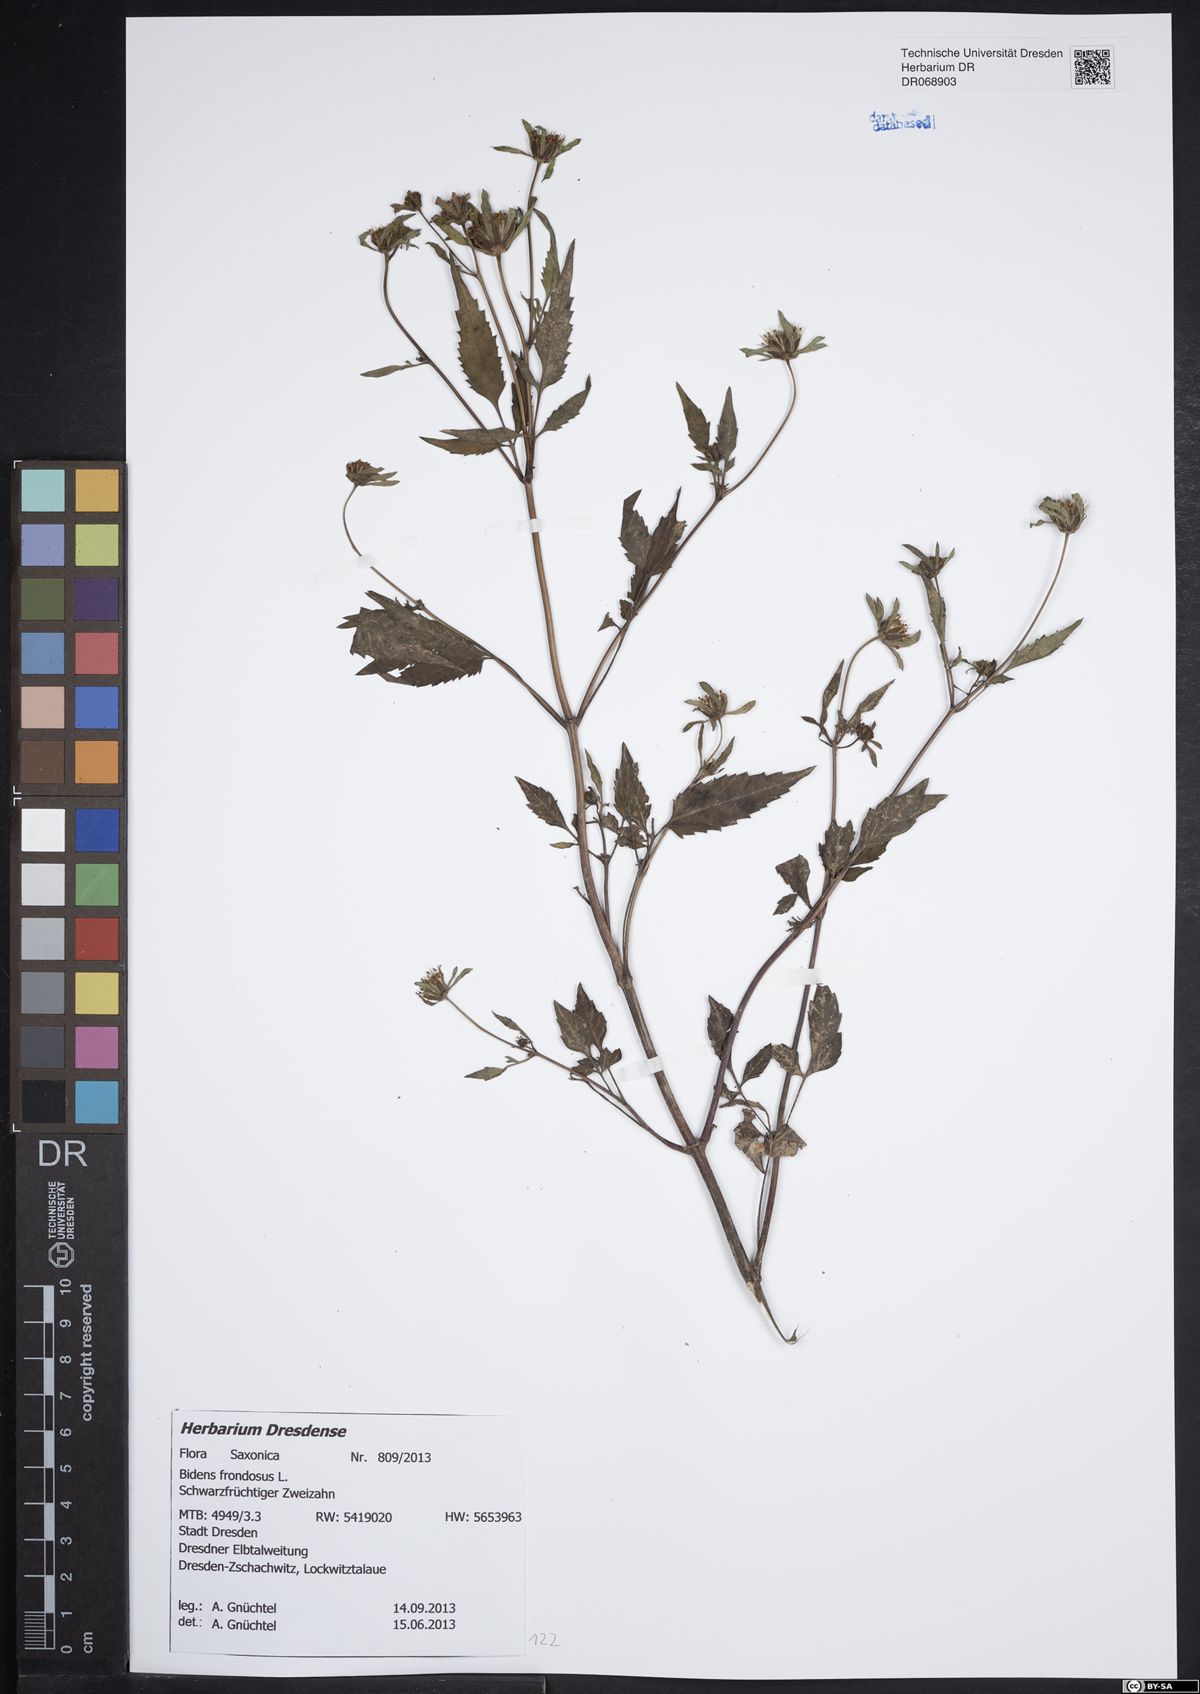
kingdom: Plantae
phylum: Tracheophyta
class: Magnoliopsida
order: Asterales
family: Asteraceae
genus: Bidens
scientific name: Bidens frondosa
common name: Beggarticks
